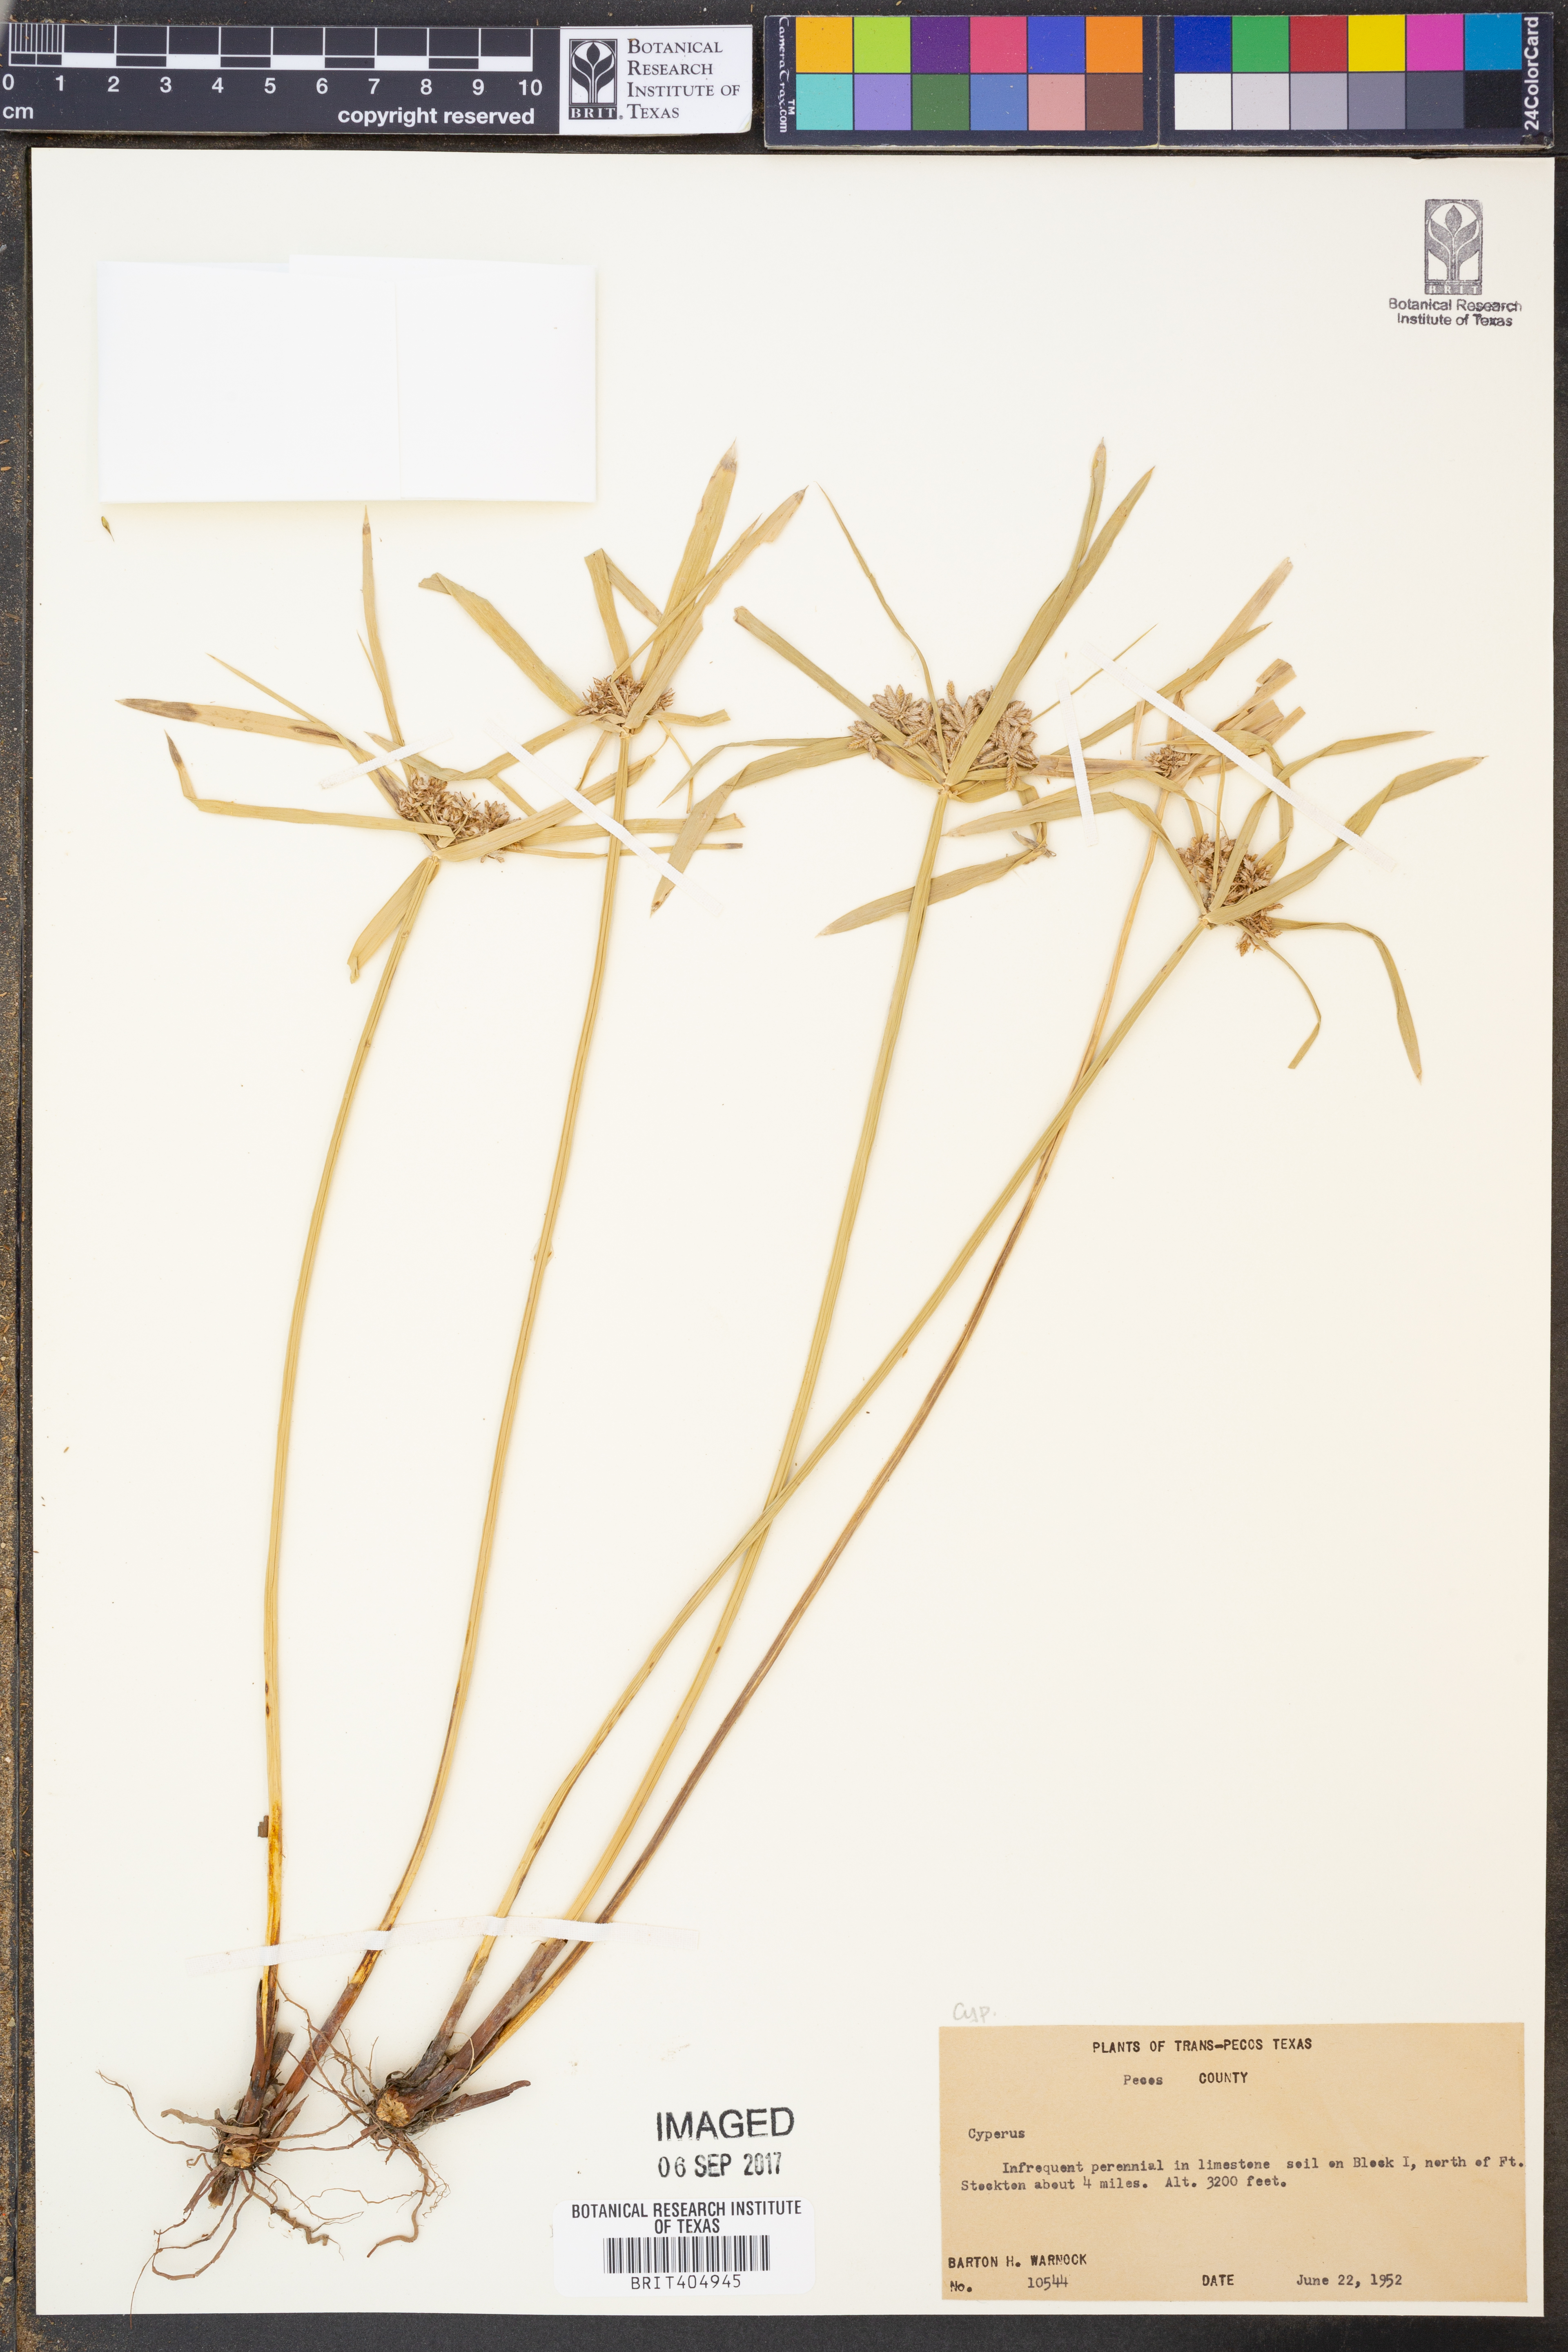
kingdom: Plantae
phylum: Tracheophyta
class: Liliopsida
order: Poales
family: Cyperaceae
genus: Cyperus
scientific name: Cyperus
